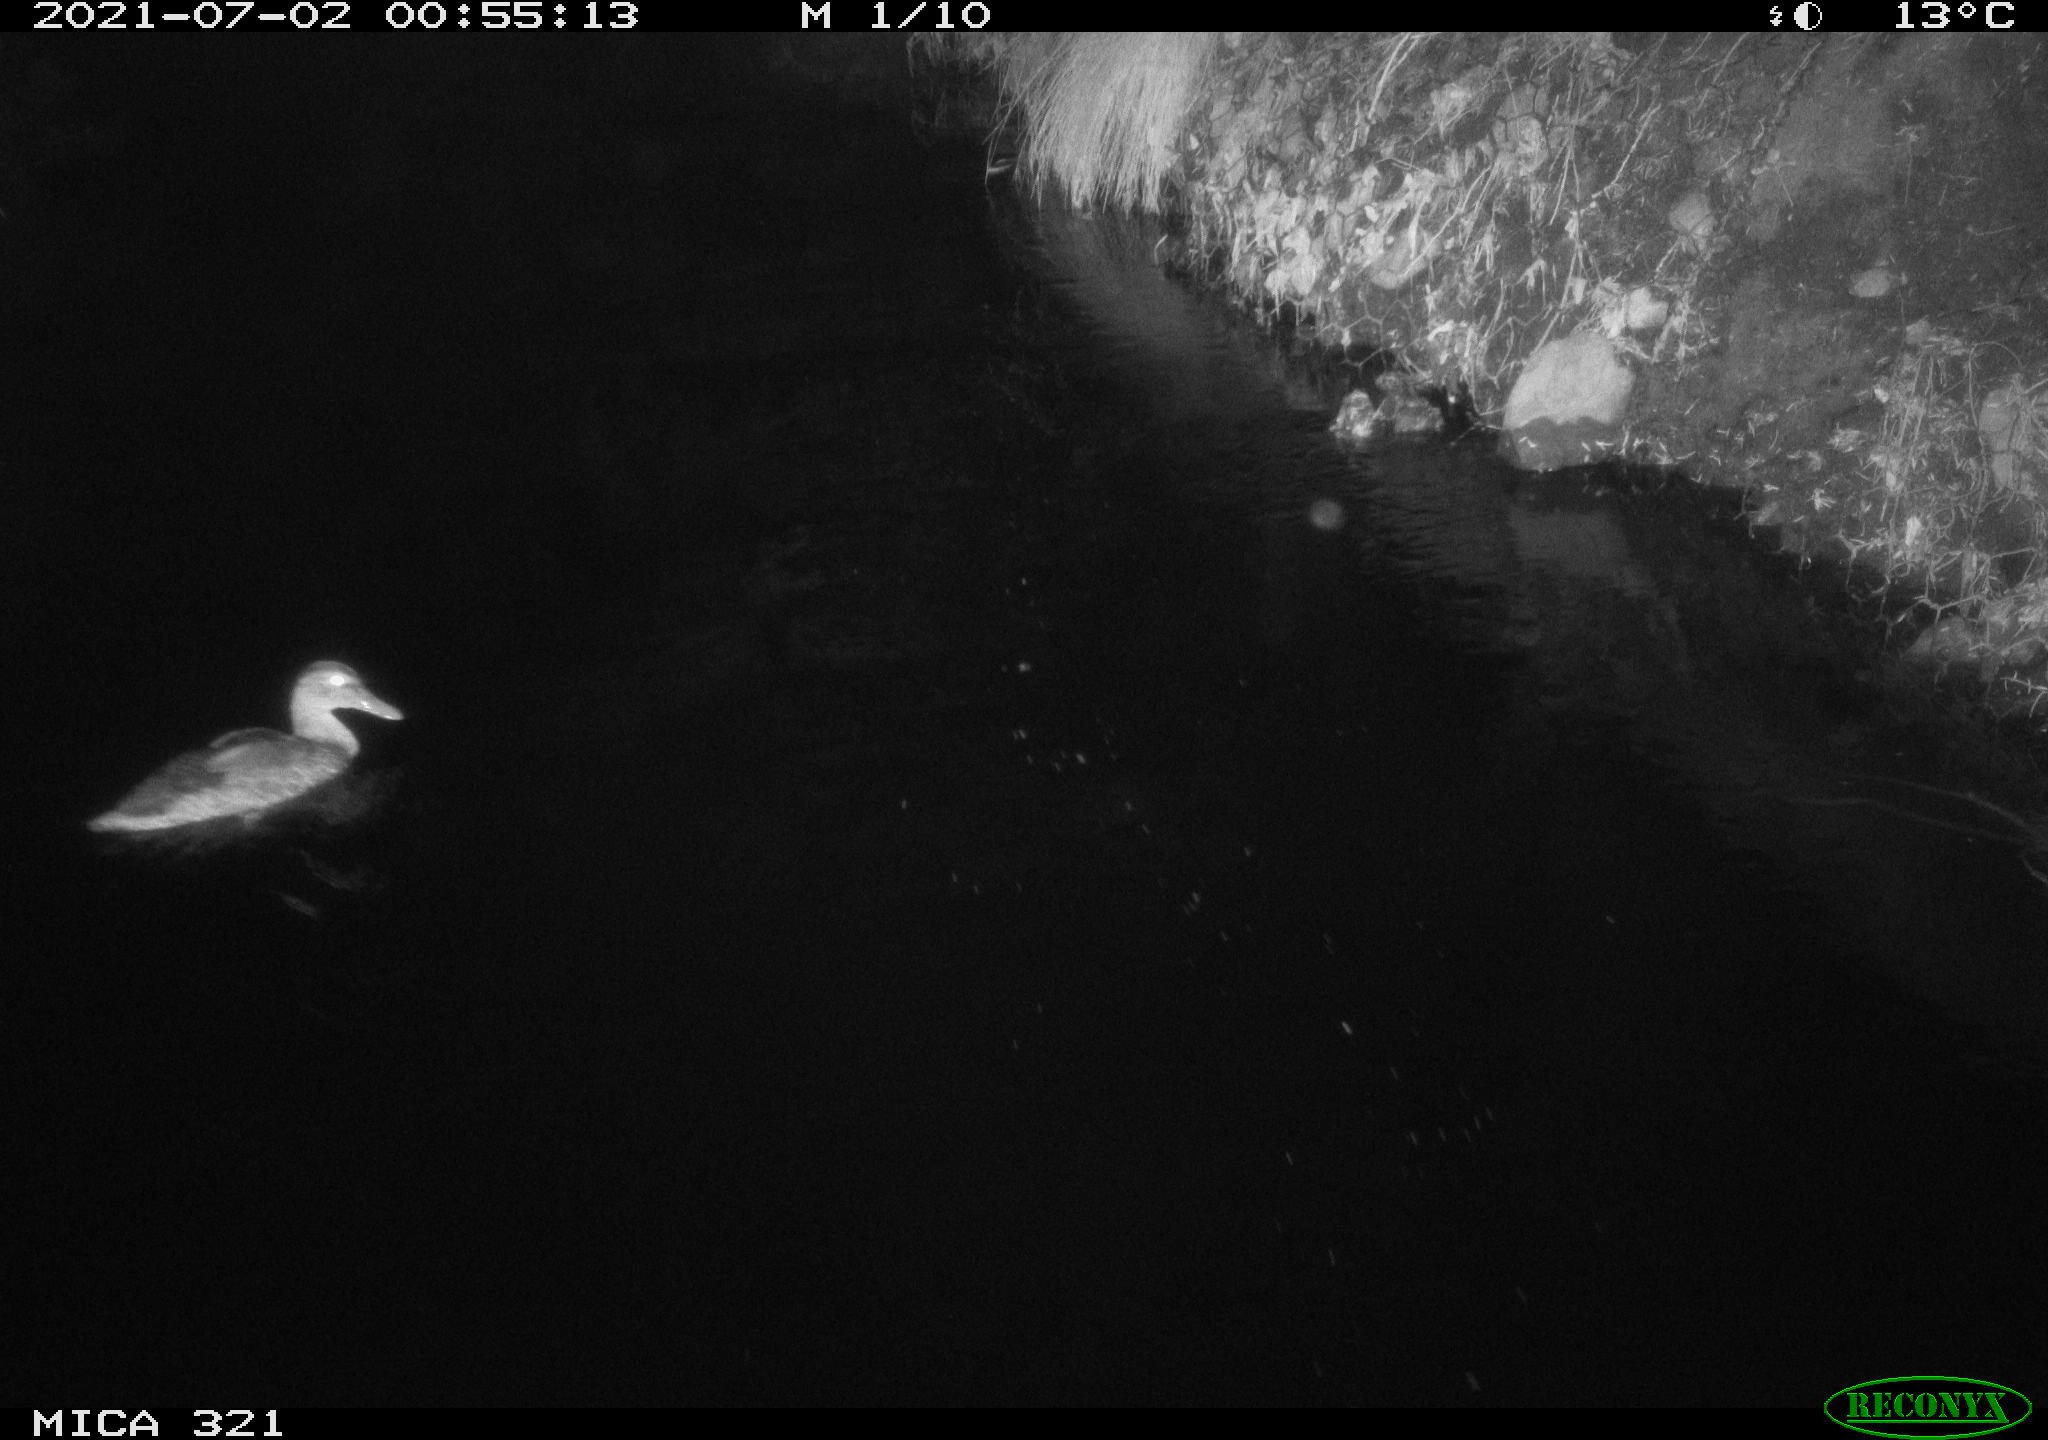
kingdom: Animalia
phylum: Chordata
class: Aves
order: Anseriformes
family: Anatidae
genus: Anas
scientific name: Anas platyrhynchos
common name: Mallard
